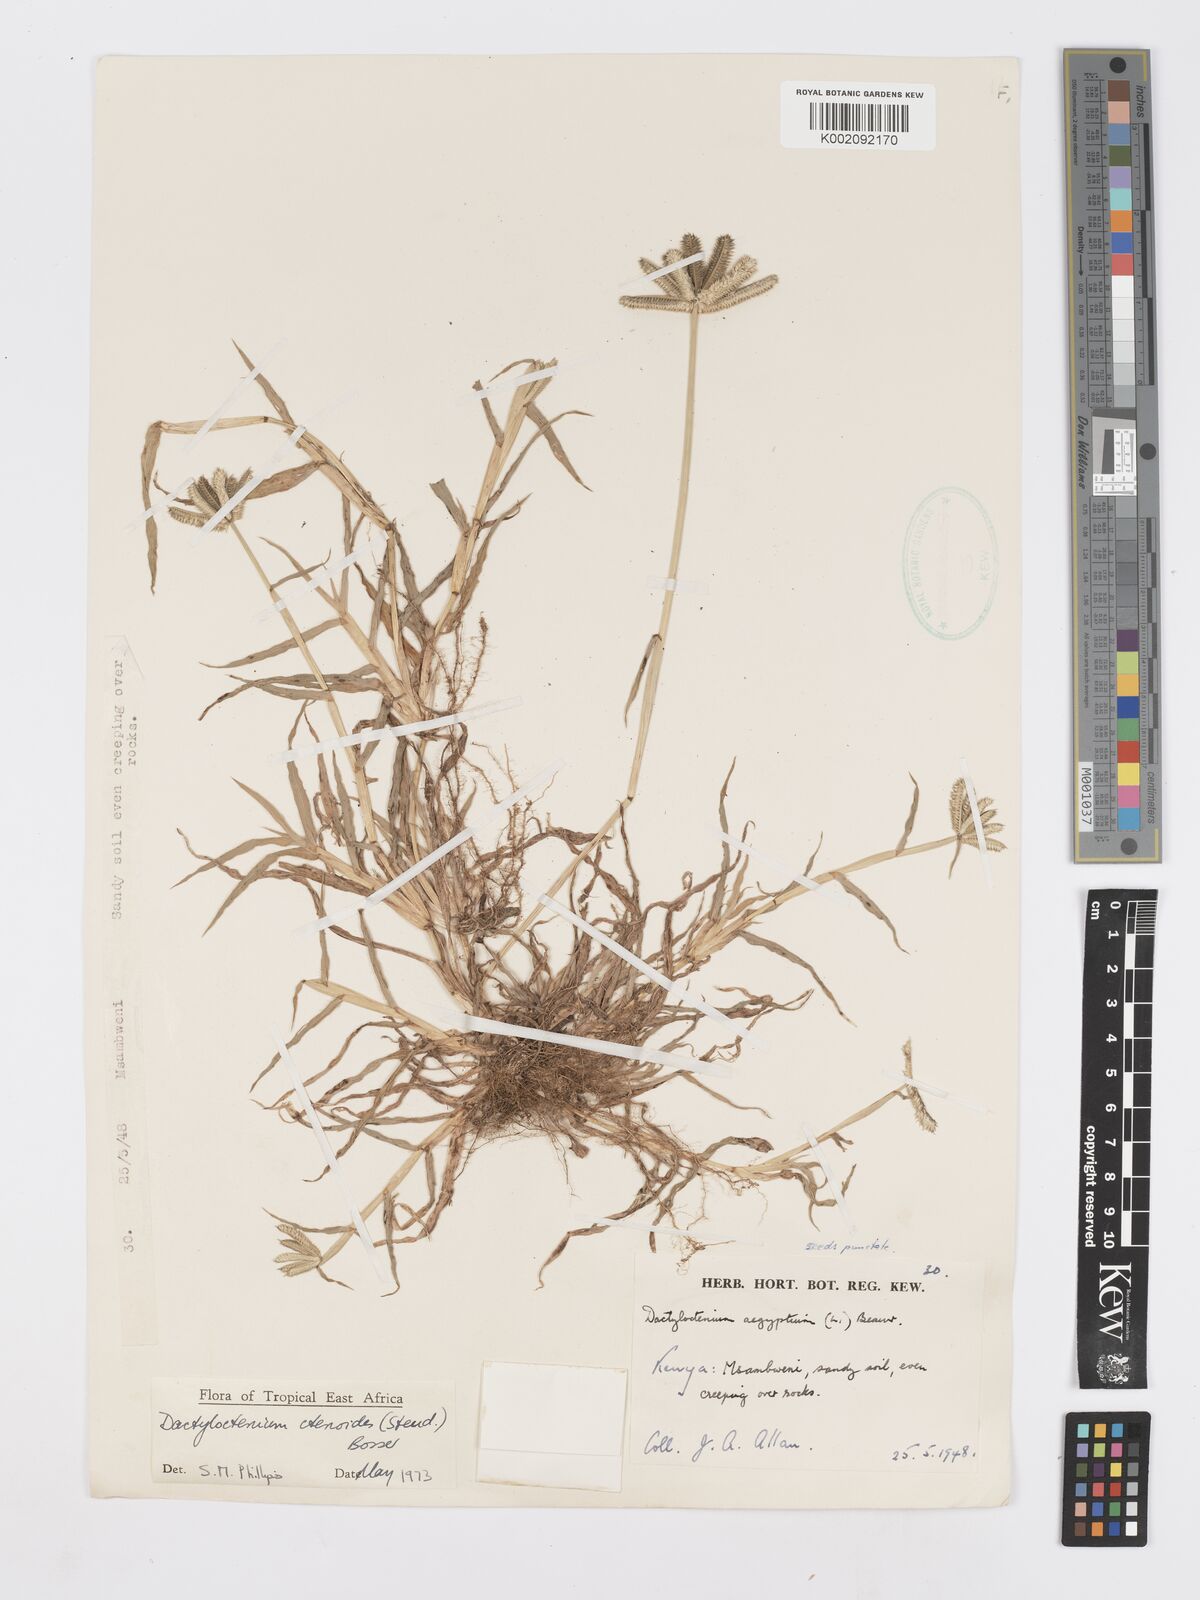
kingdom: Plantae
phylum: Tracheophyta
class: Liliopsida
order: Poales
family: Poaceae
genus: Dactyloctenium
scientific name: Dactyloctenium aegyptium
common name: Egyptian grass
